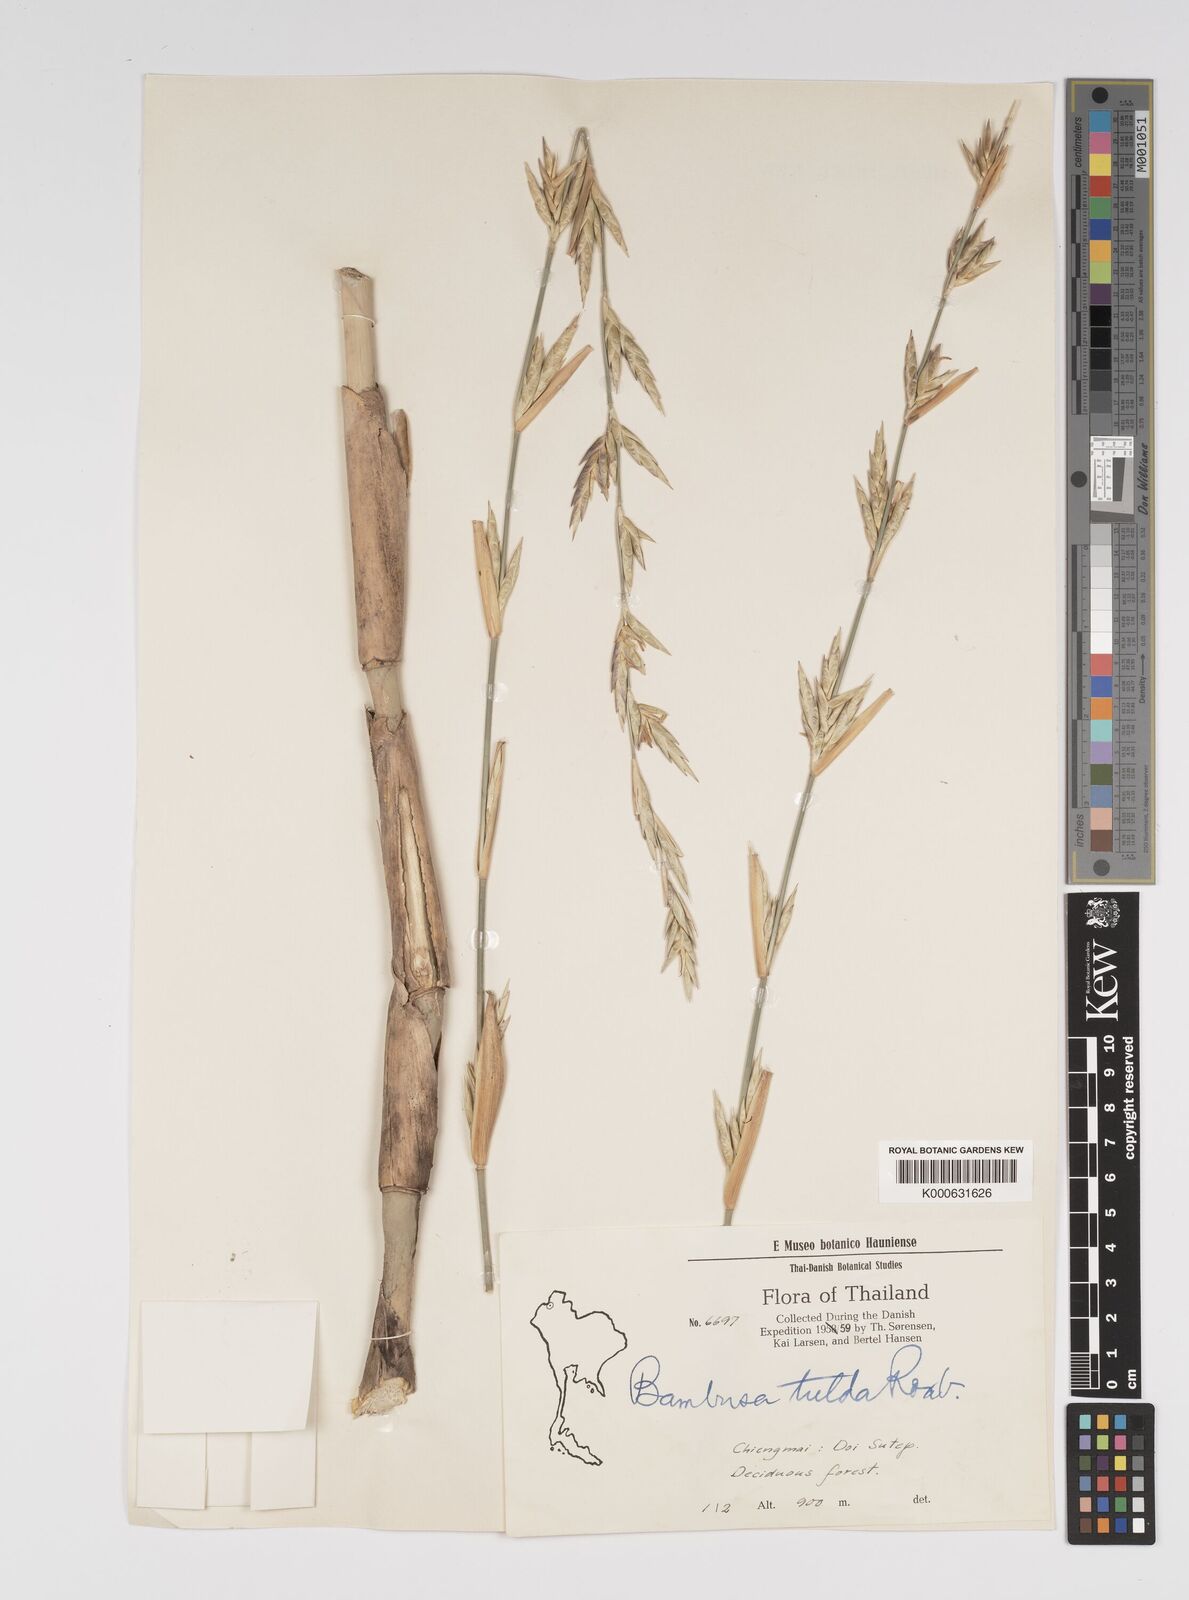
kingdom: Plantae
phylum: Tracheophyta
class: Liliopsida
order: Poales
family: Poaceae
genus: Bambusa
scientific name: Bambusa tulda
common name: Bengal bamboo
